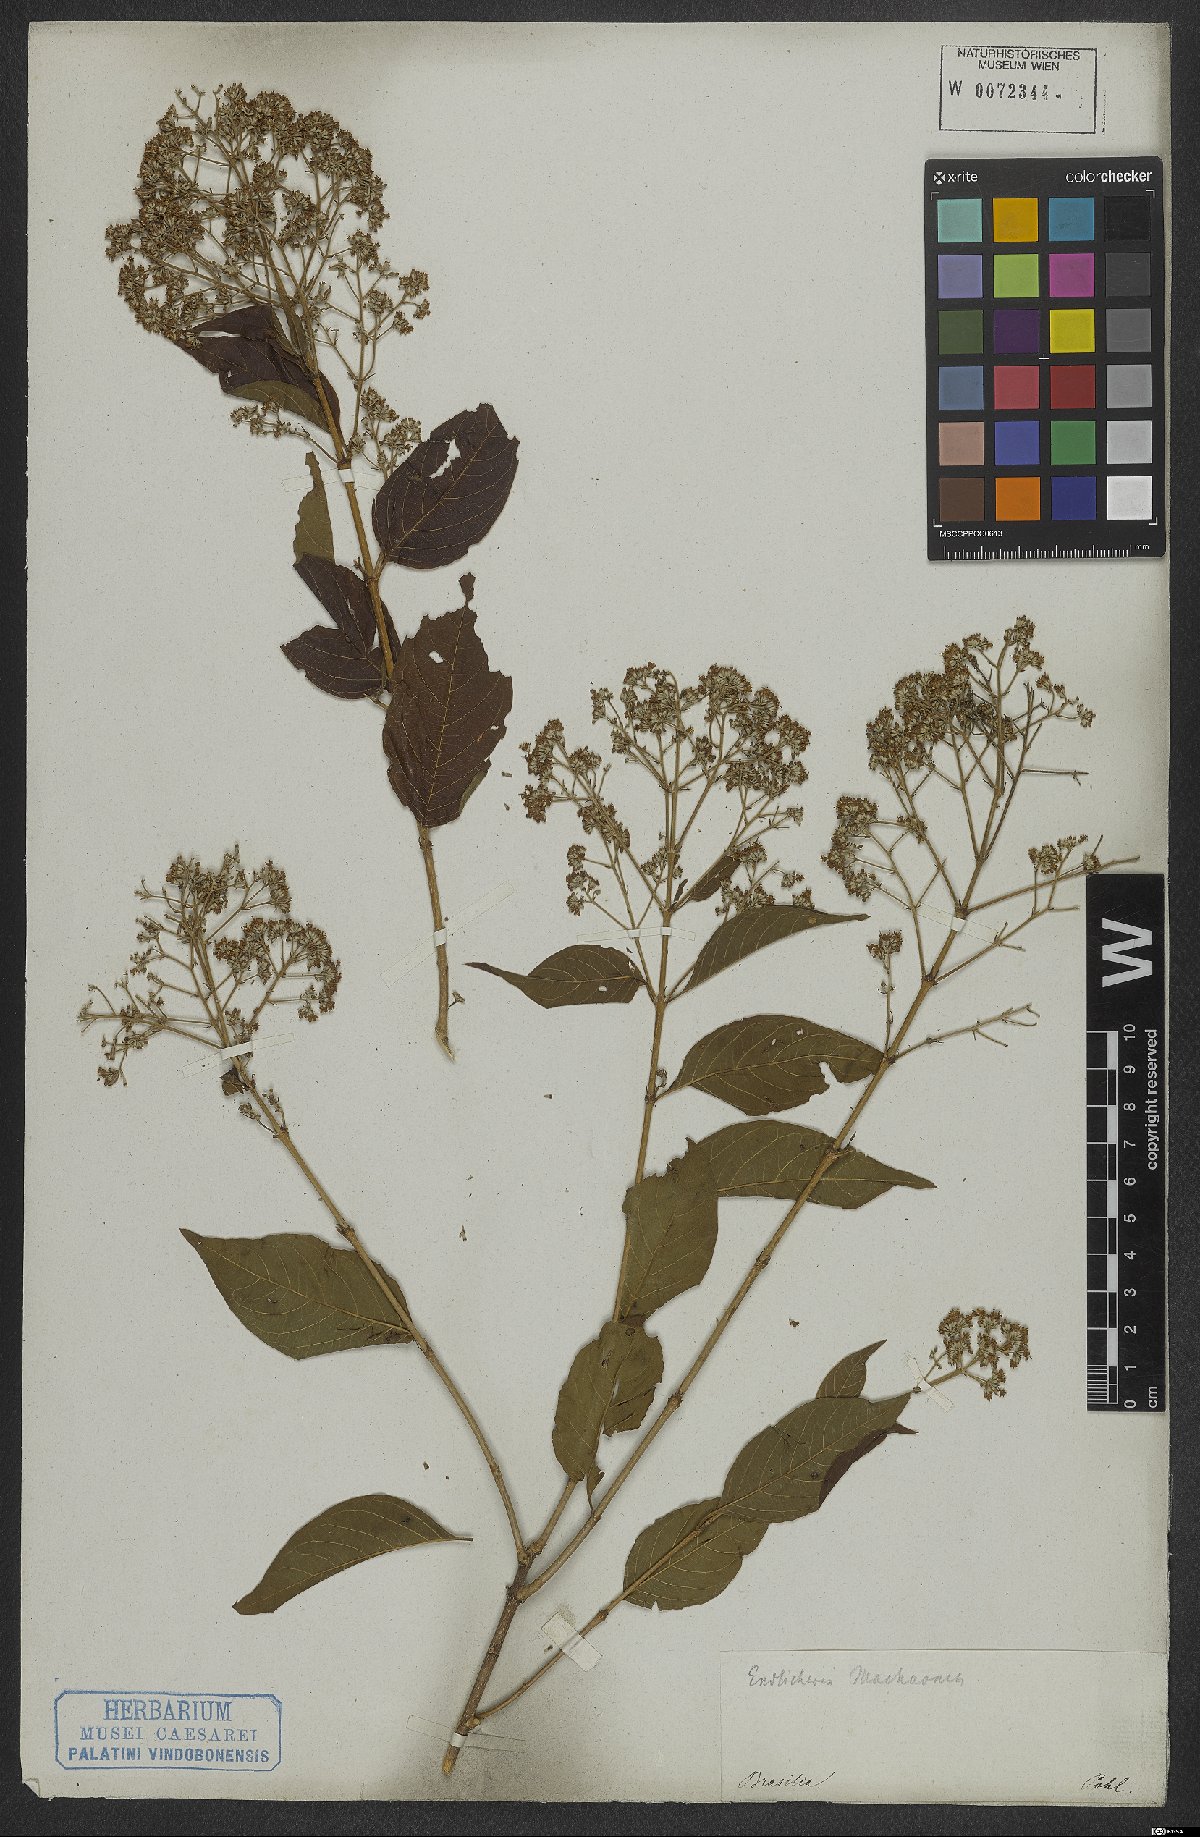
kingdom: Plantae
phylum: Tracheophyta
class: Magnoliopsida
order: Gentianales
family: Rubiaceae
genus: Machaonia
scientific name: Machaonia
